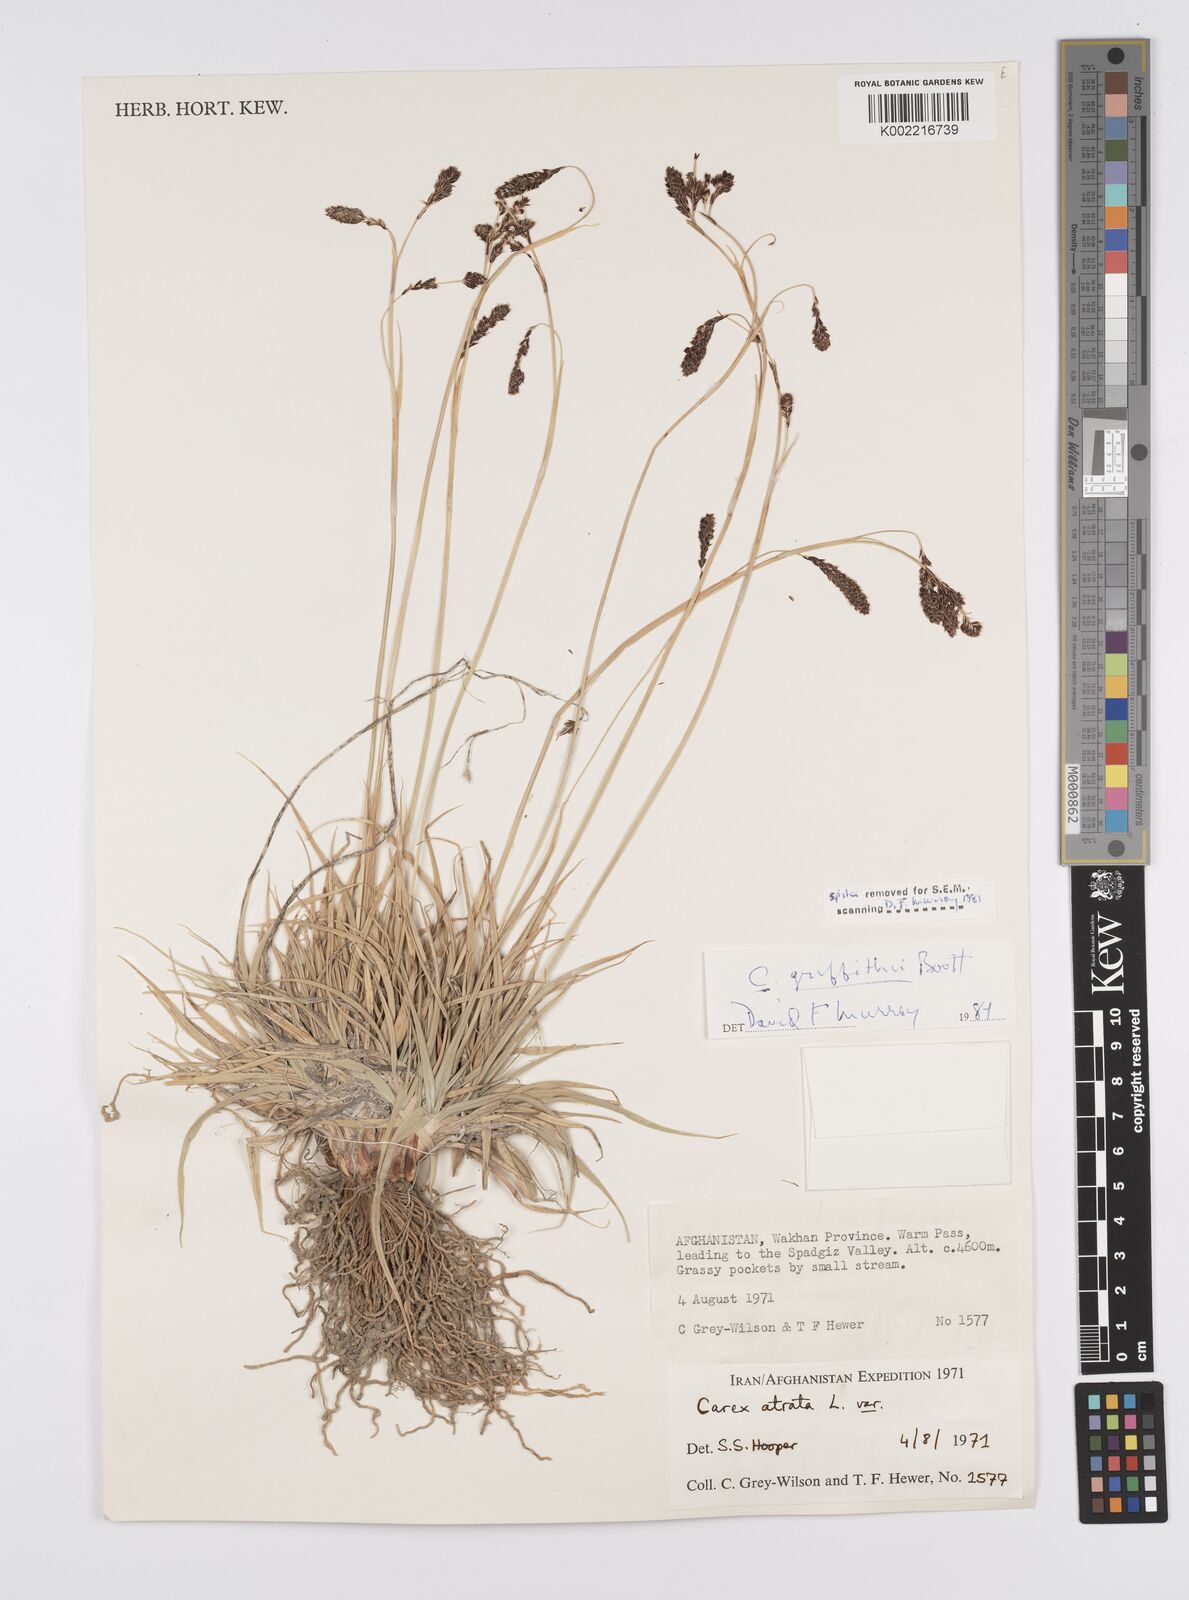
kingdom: Plantae
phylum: Tracheophyta
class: Liliopsida
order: Poales
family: Cyperaceae
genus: Carex
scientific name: Carex nivalis
